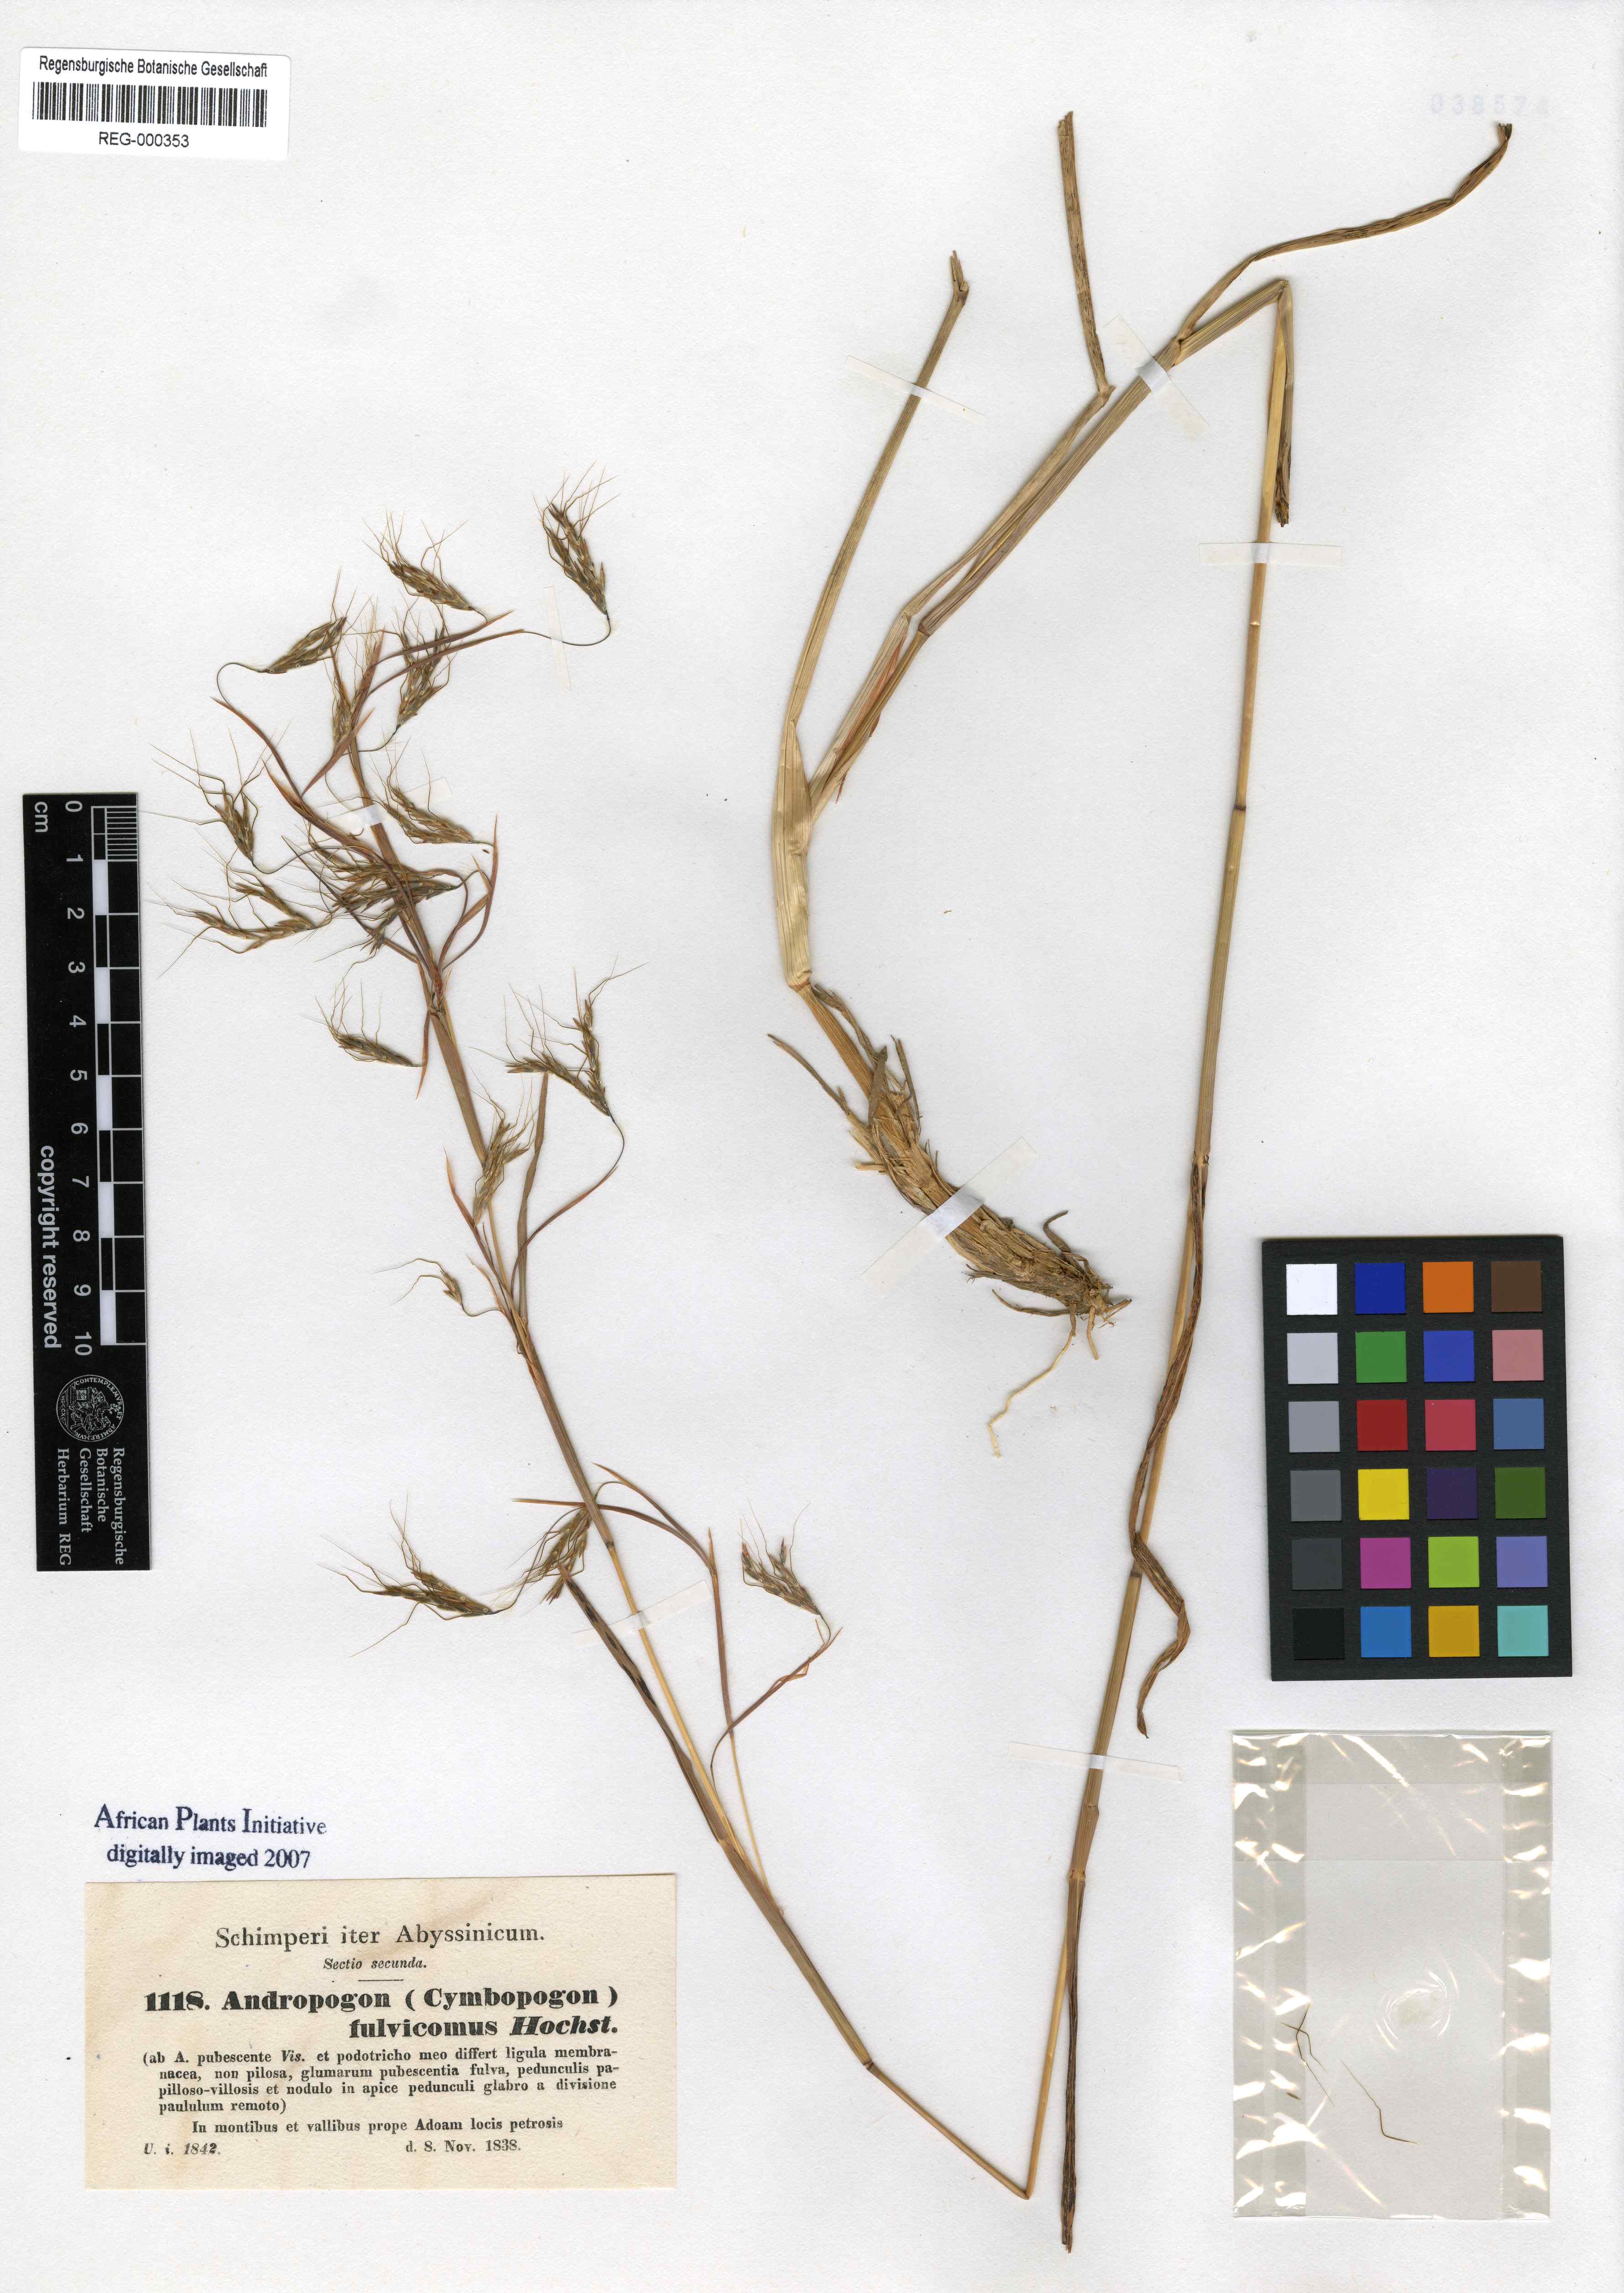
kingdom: Plantae
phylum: Tracheophyta
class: Liliopsida
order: Poales
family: Poaceae
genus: Hyparrhenia
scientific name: Hyparrhenia rufa
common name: Jaraguagrass
